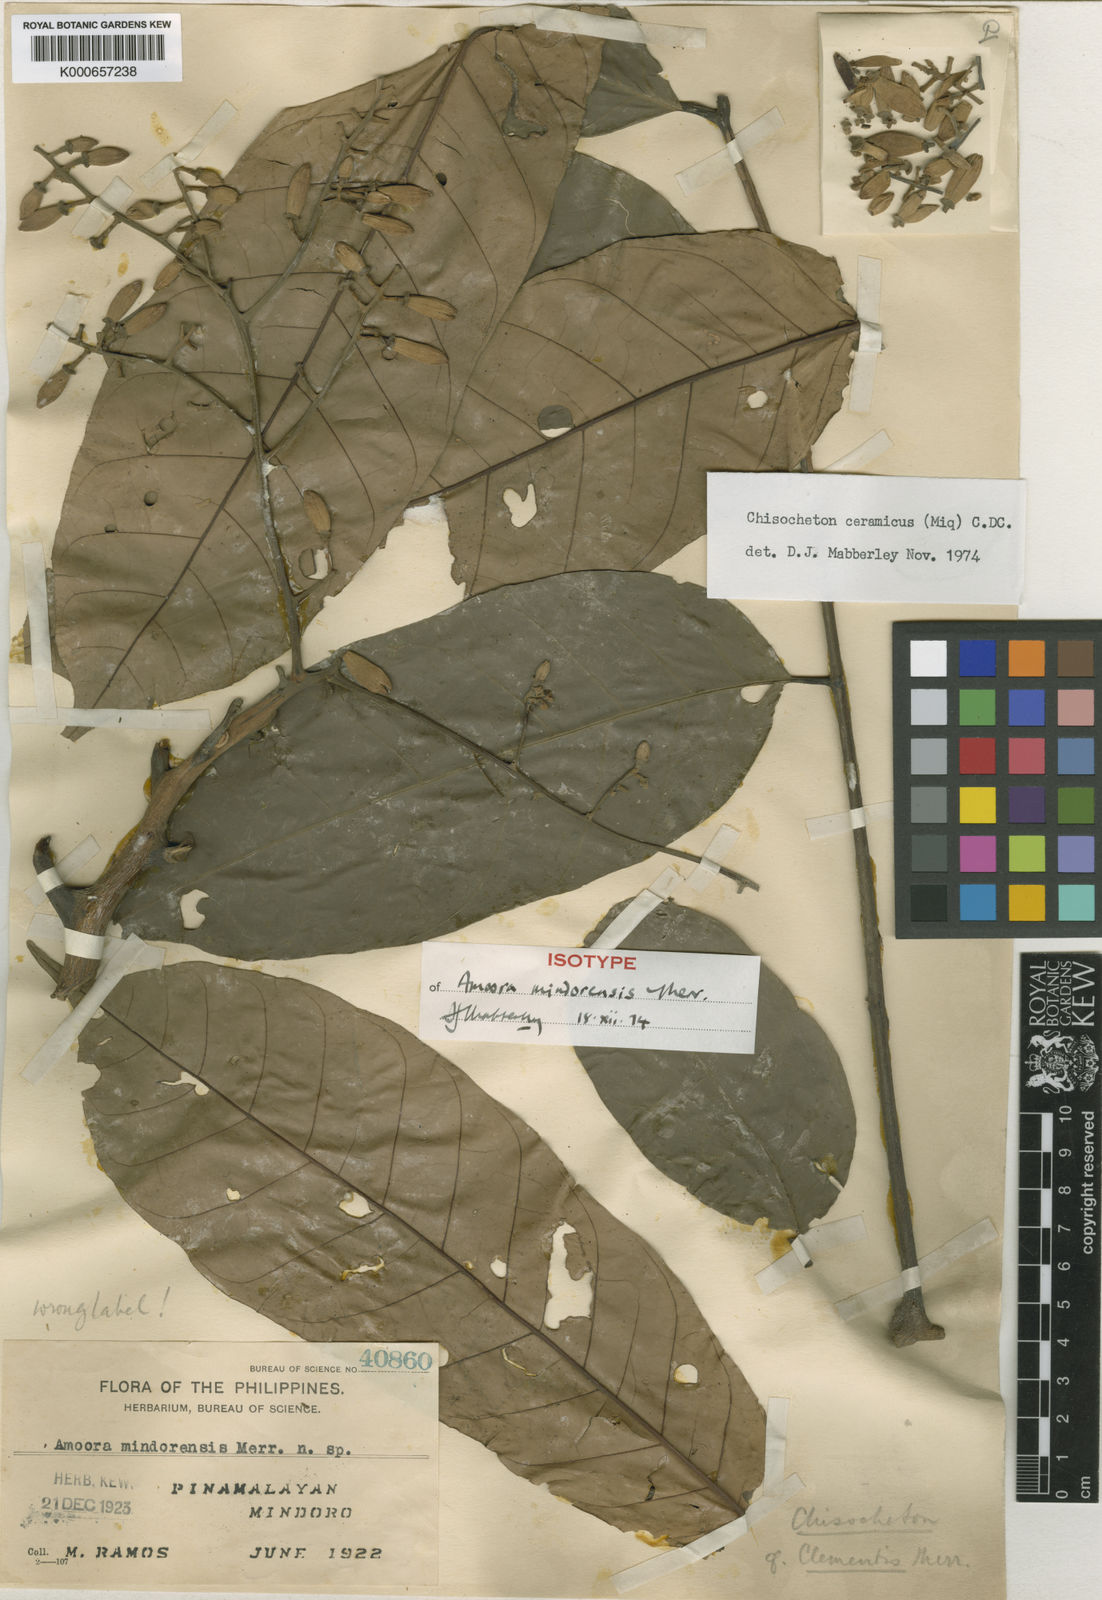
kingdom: Plantae
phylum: Tracheophyta
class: Magnoliopsida
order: Sapindales
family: Meliaceae
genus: Chisocheton
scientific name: Chisocheton ceramicus
